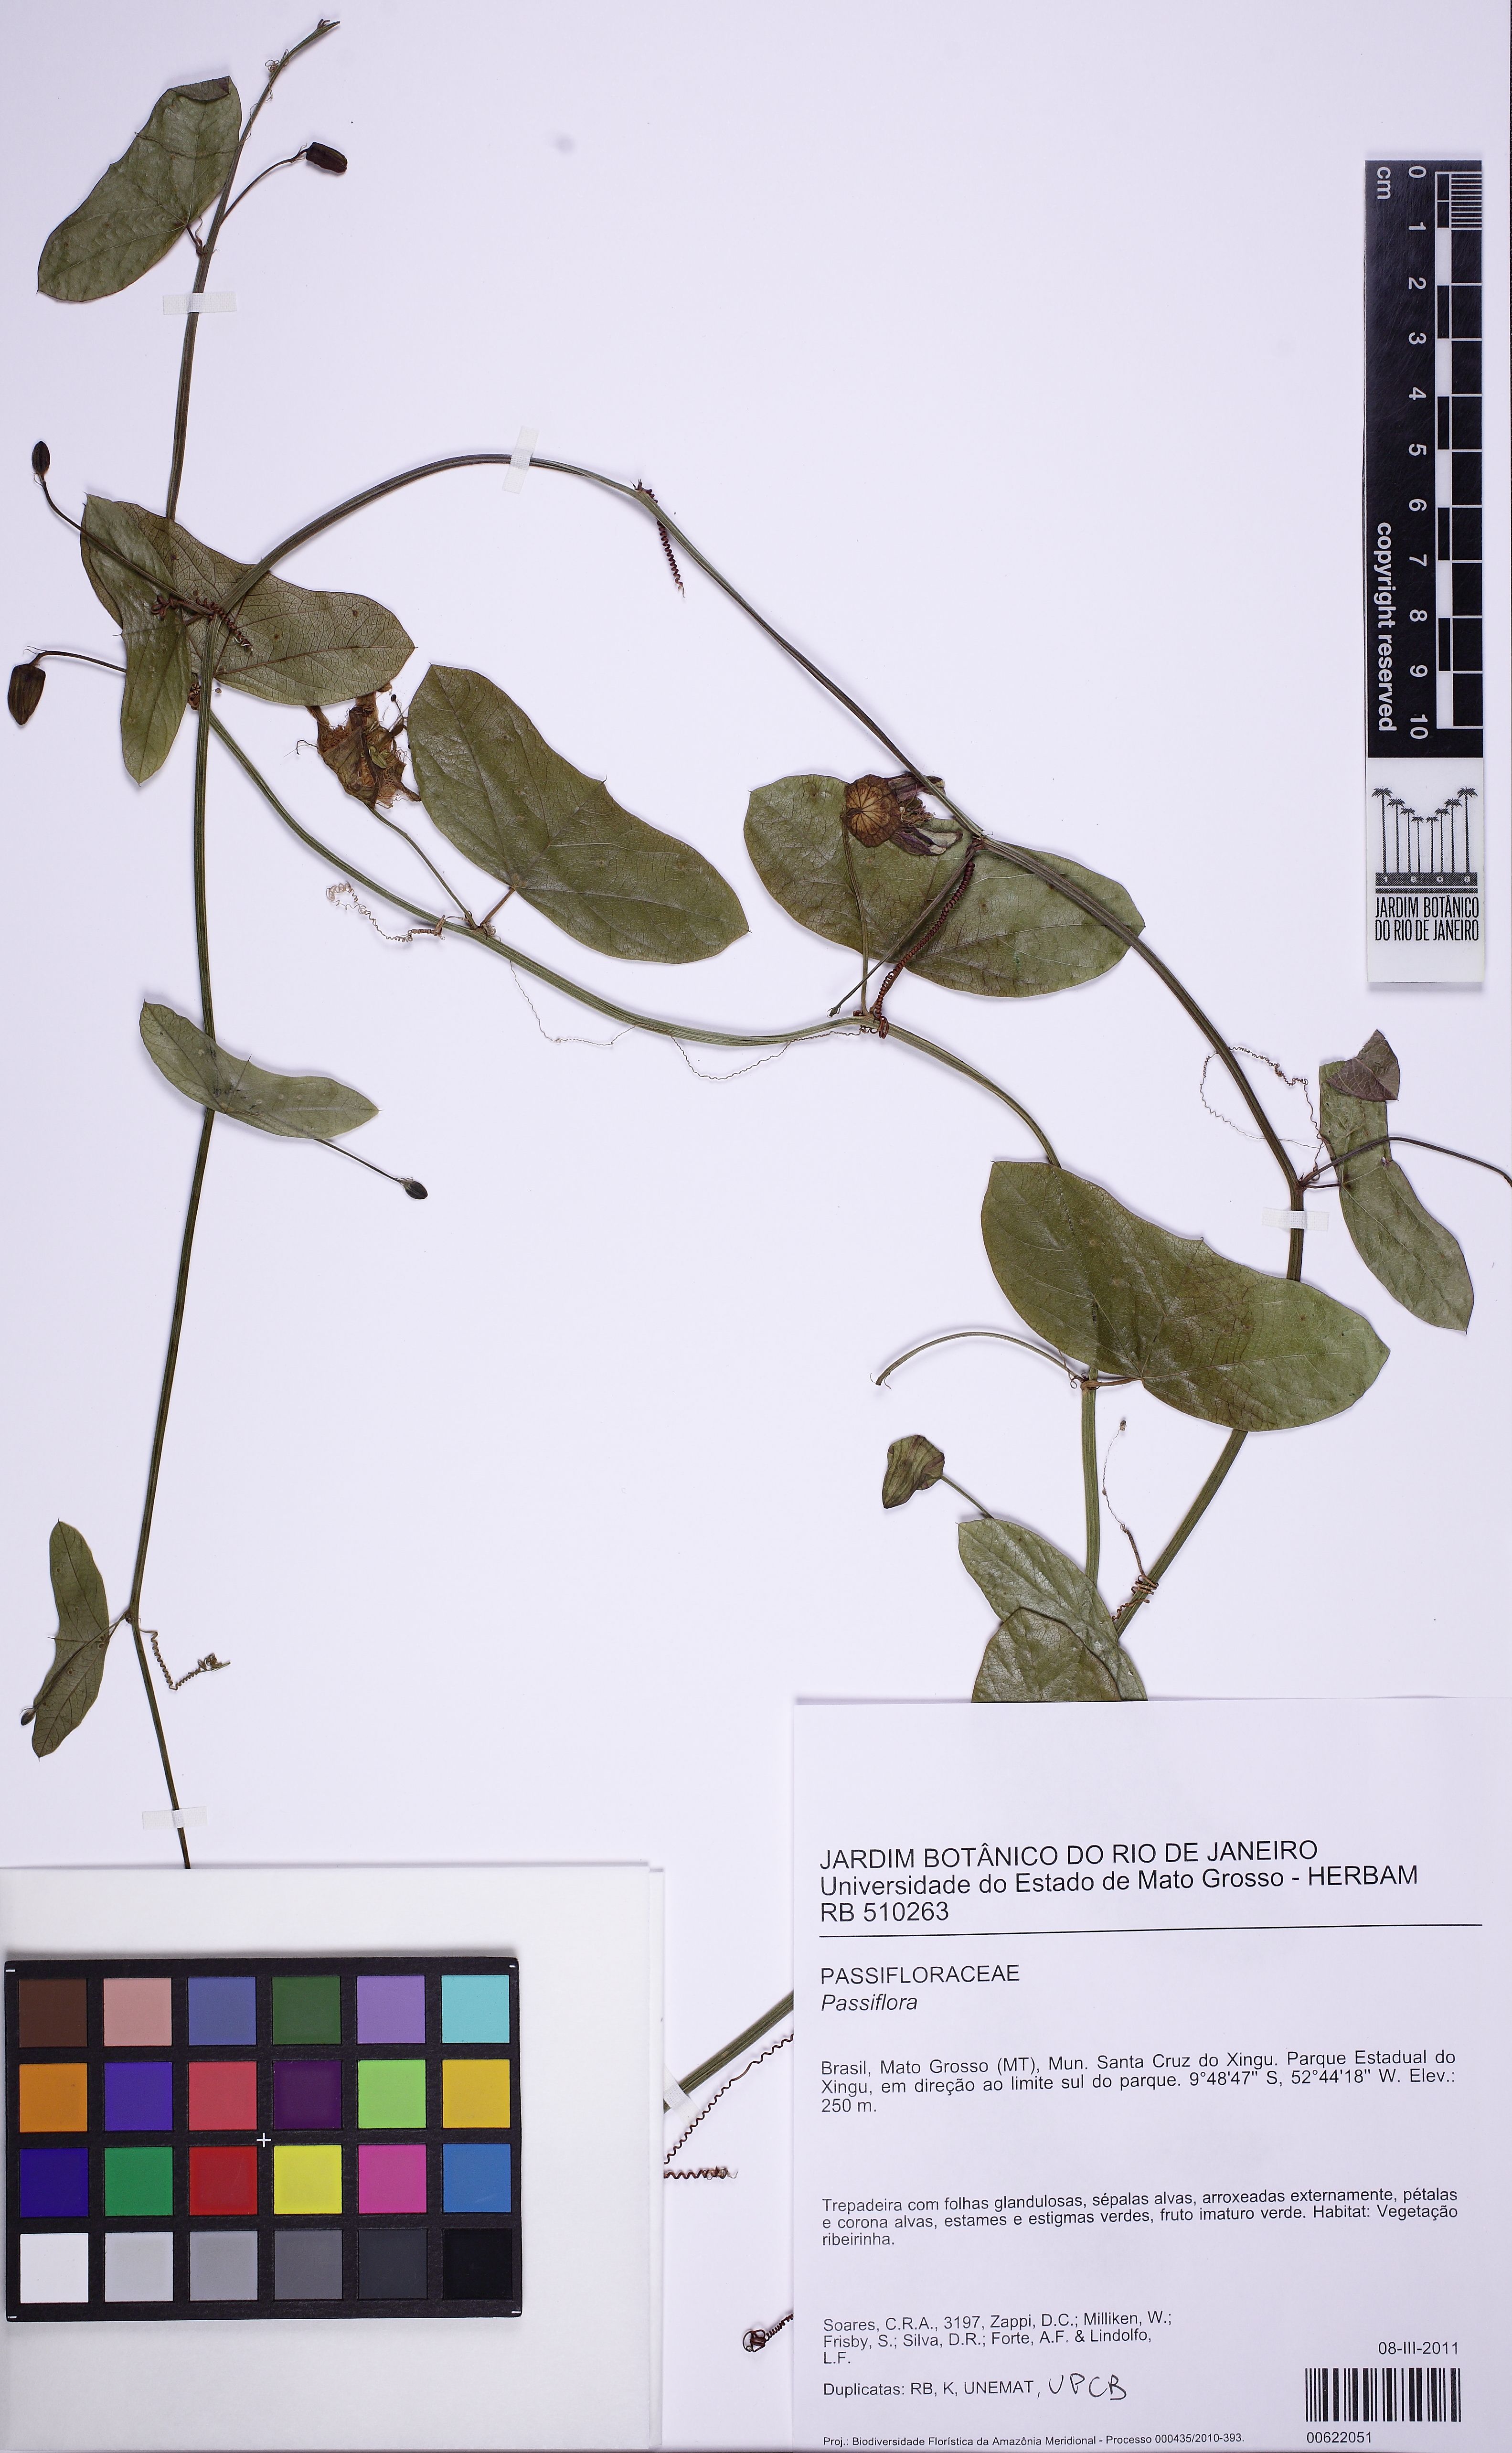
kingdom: Plantae
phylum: Tracheophyta
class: Magnoliopsida
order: Malpighiales
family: Passifloraceae
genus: Passiflora
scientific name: Passiflora
